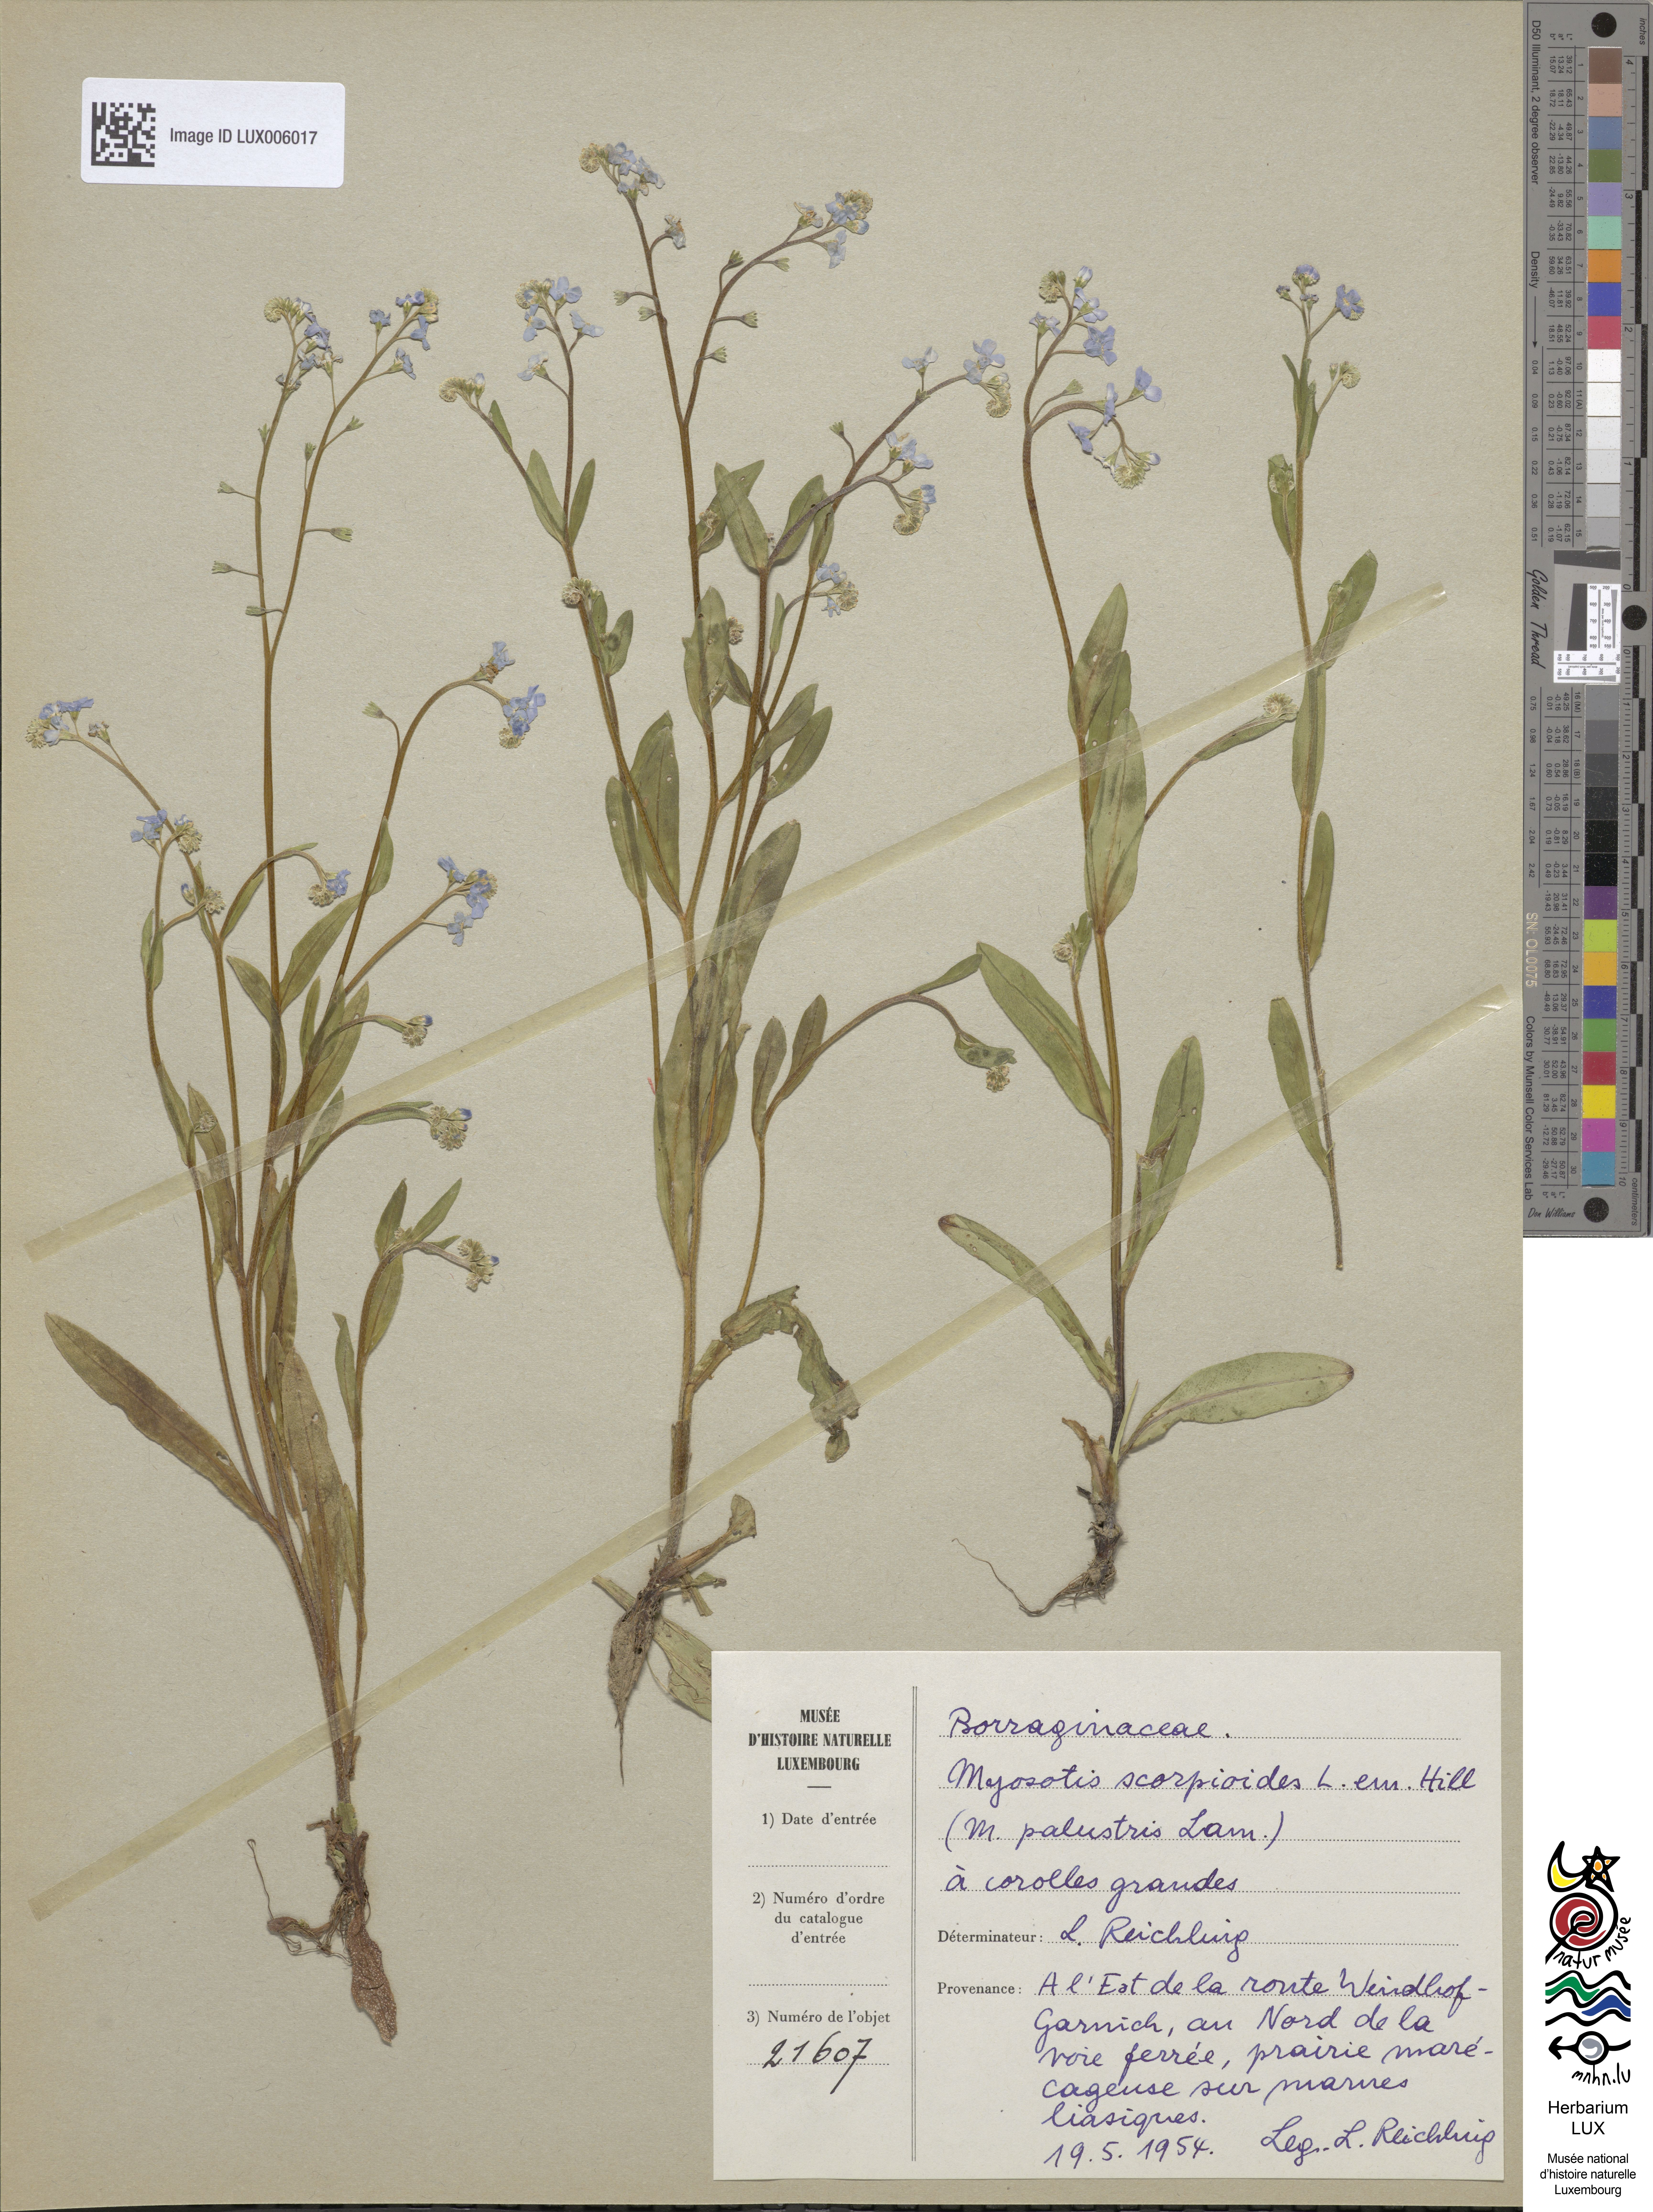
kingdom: Plantae
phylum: Tracheophyta
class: Magnoliopsida
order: Boraginales
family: Boraginaceae
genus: Myosotis
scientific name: Myosotis scorpioides
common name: Water forget-me-not
